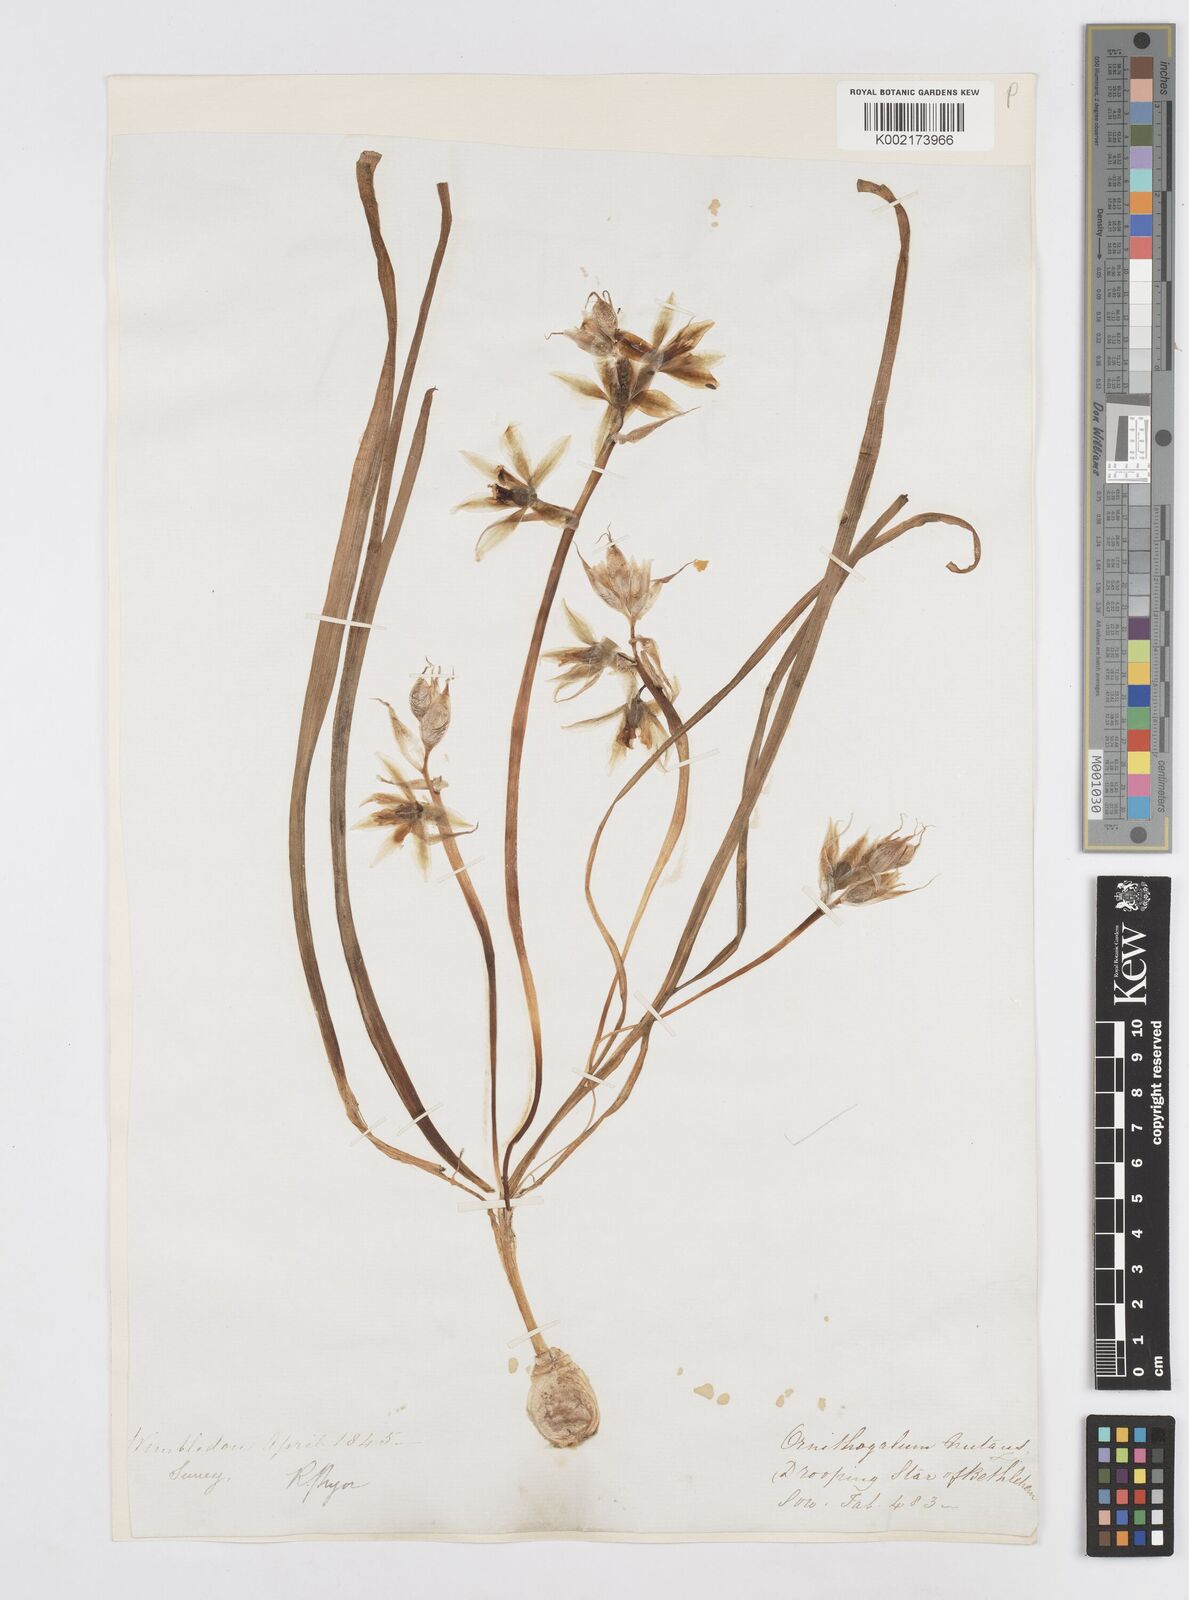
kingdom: Plantae
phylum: Tracheophyta
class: Liliopsida
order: Asparagales
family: Asparagaceae
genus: Ornithogalum
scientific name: Ornithogalum nutans
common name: Drooping star-of-bethlehem
